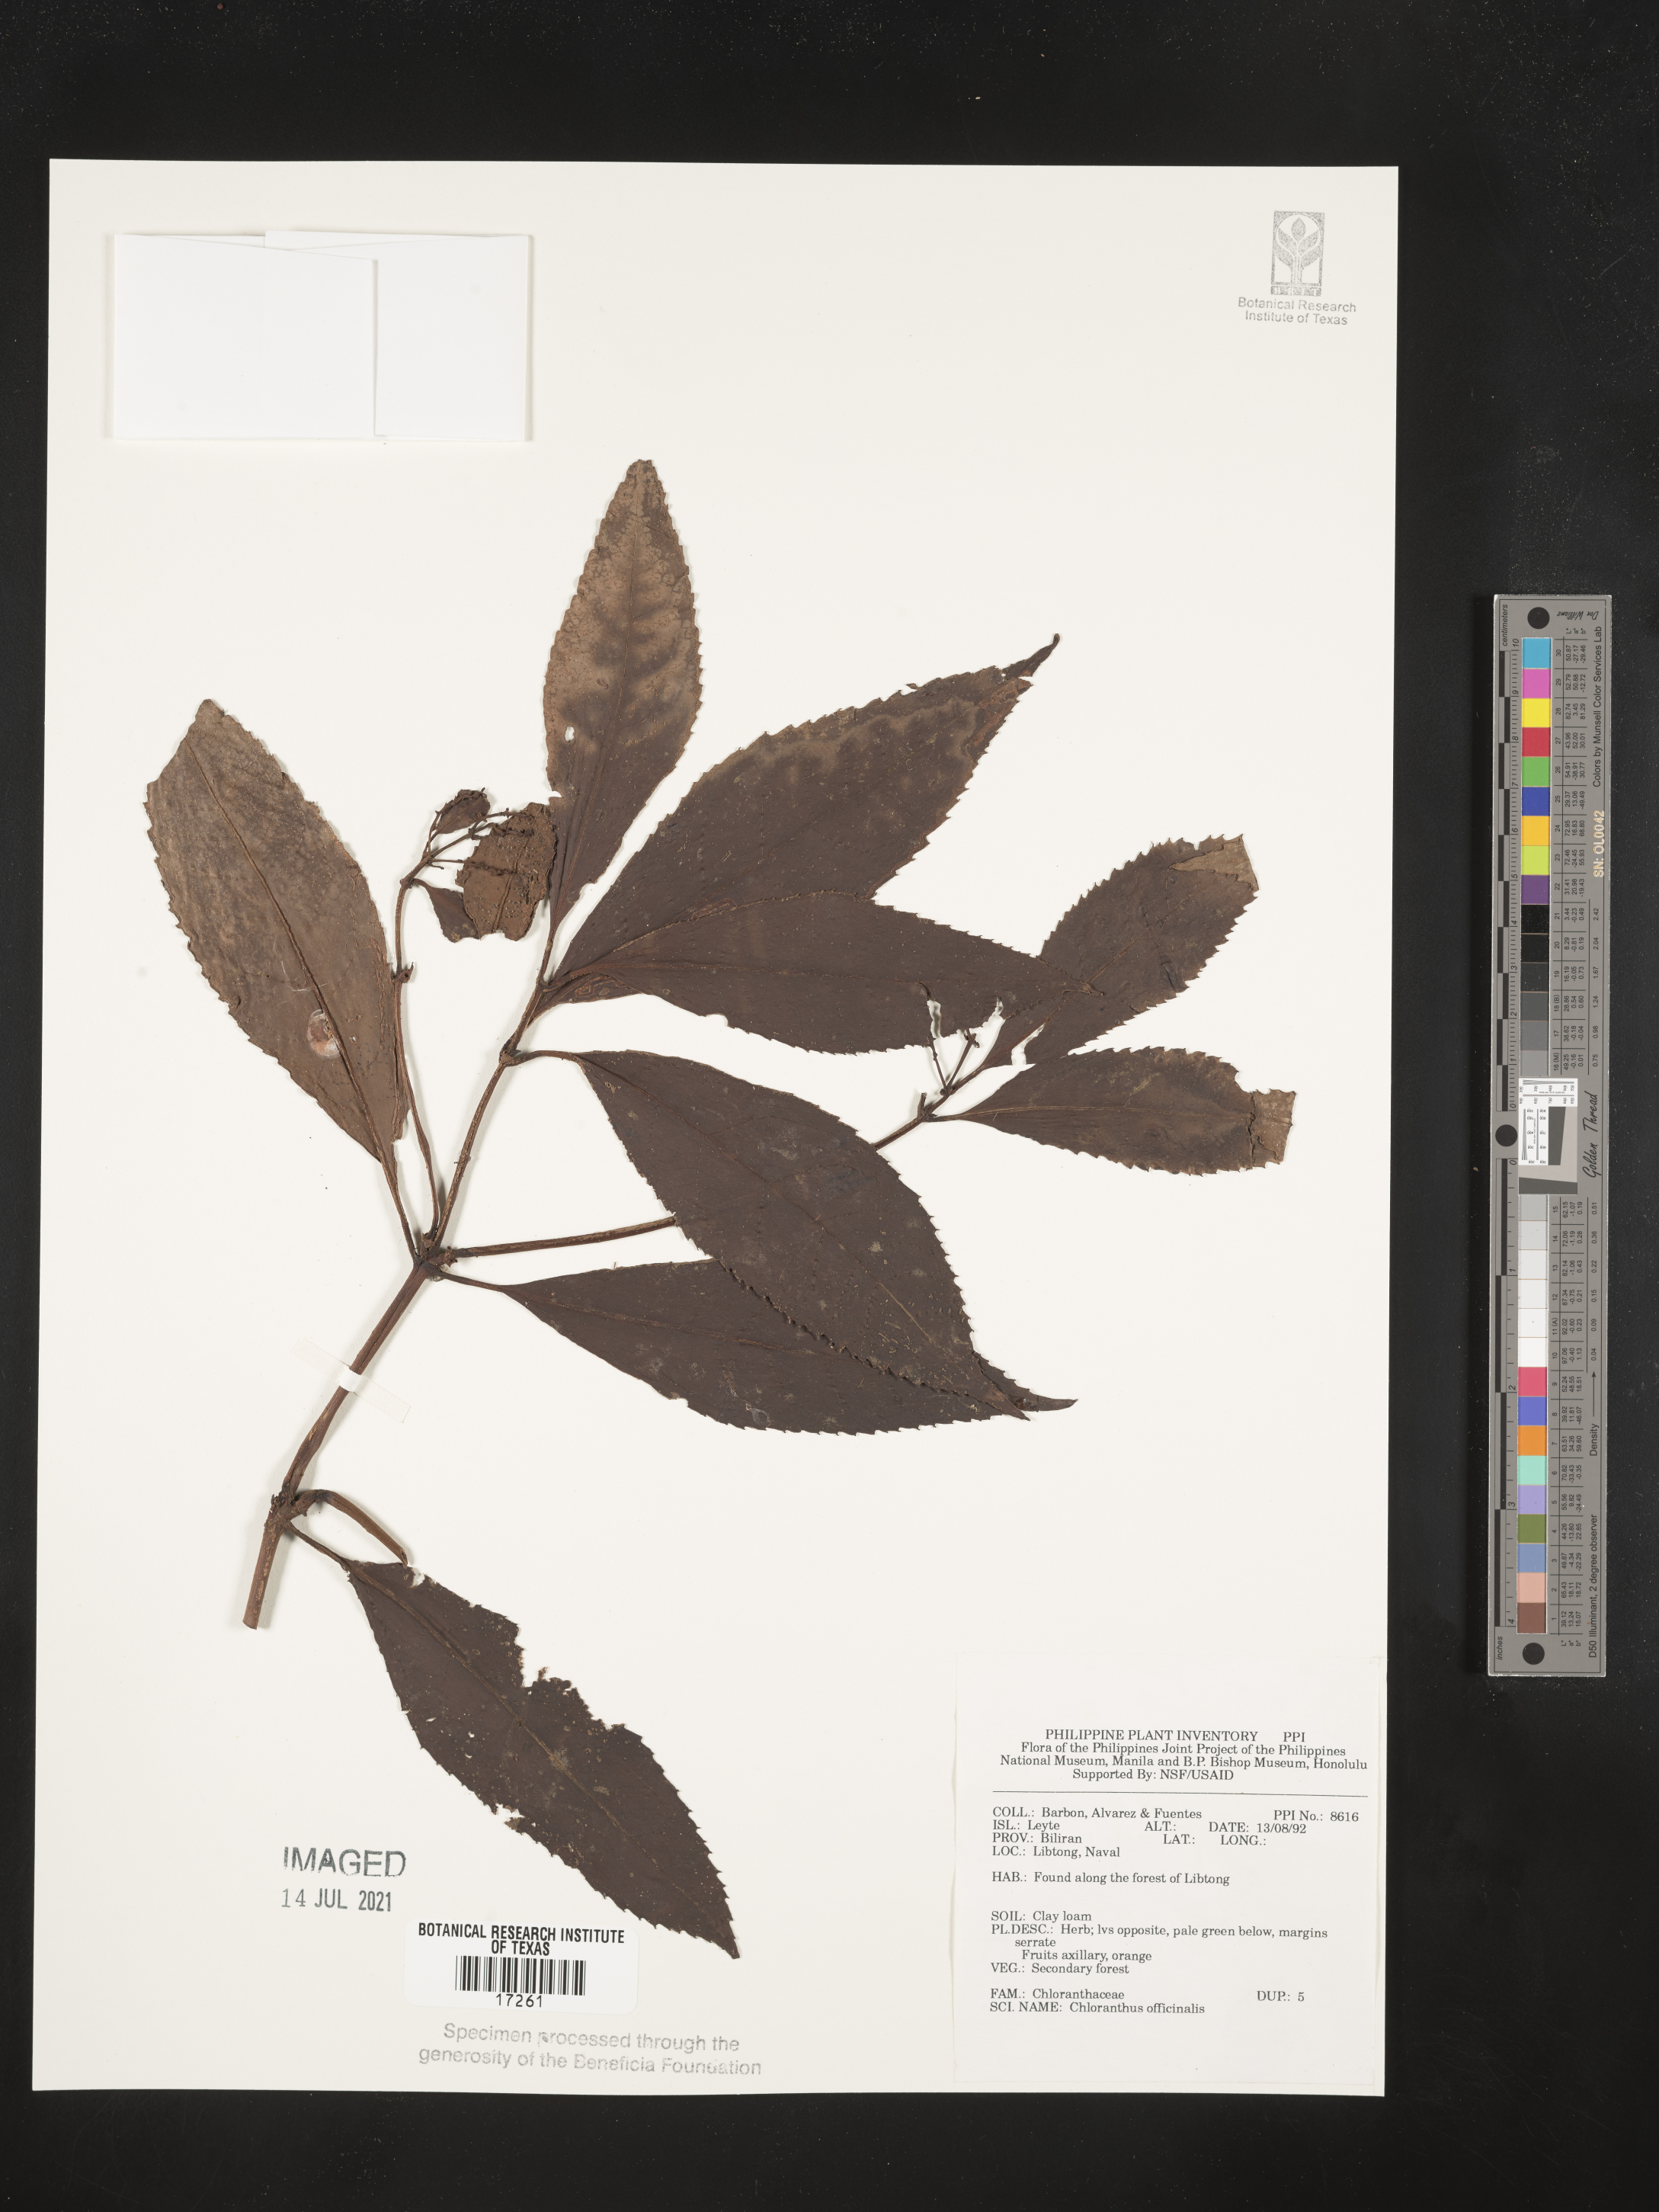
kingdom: Plantae
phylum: Tracheophyta
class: Magnoliopsida
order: Chloranthales
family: Chloranthaceae
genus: Chloranthus
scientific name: Chloranthus elatior
